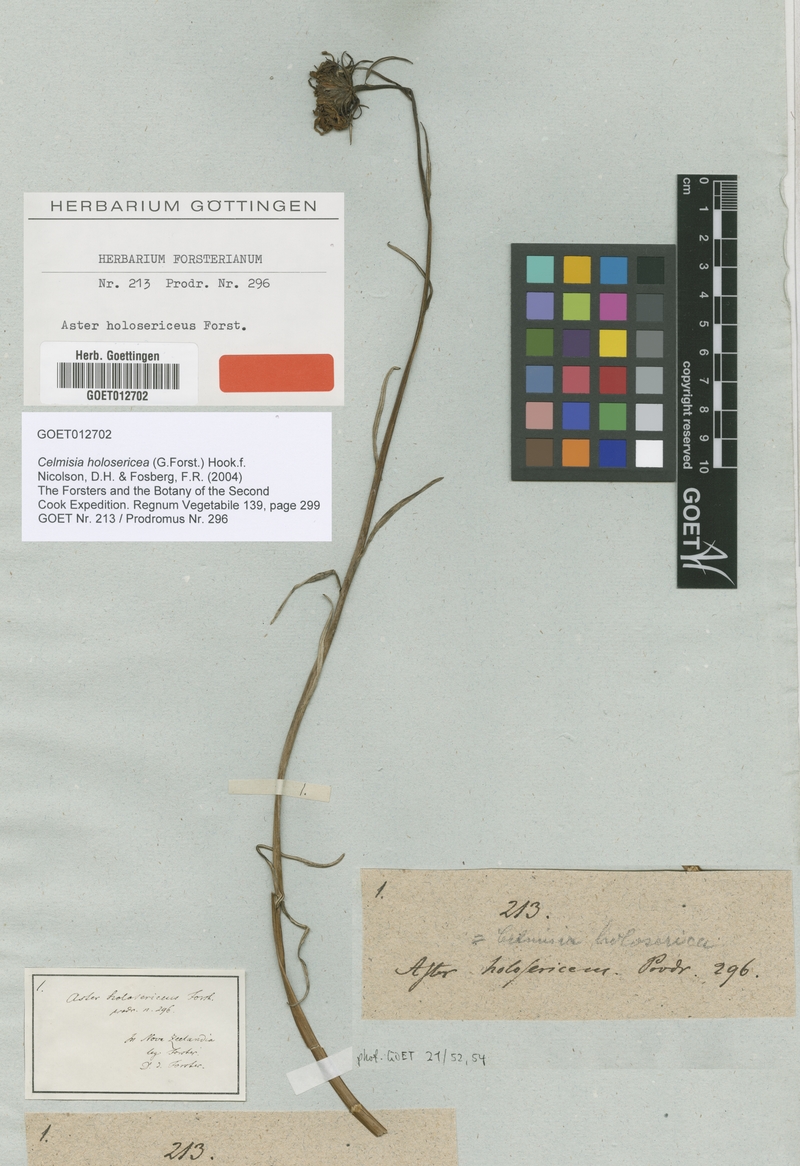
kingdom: Plantae
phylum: Tracheophyta
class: Magnoliopsida
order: Asterales
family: Asteraceae
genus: Celmisia
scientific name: Celmisia holosericea
